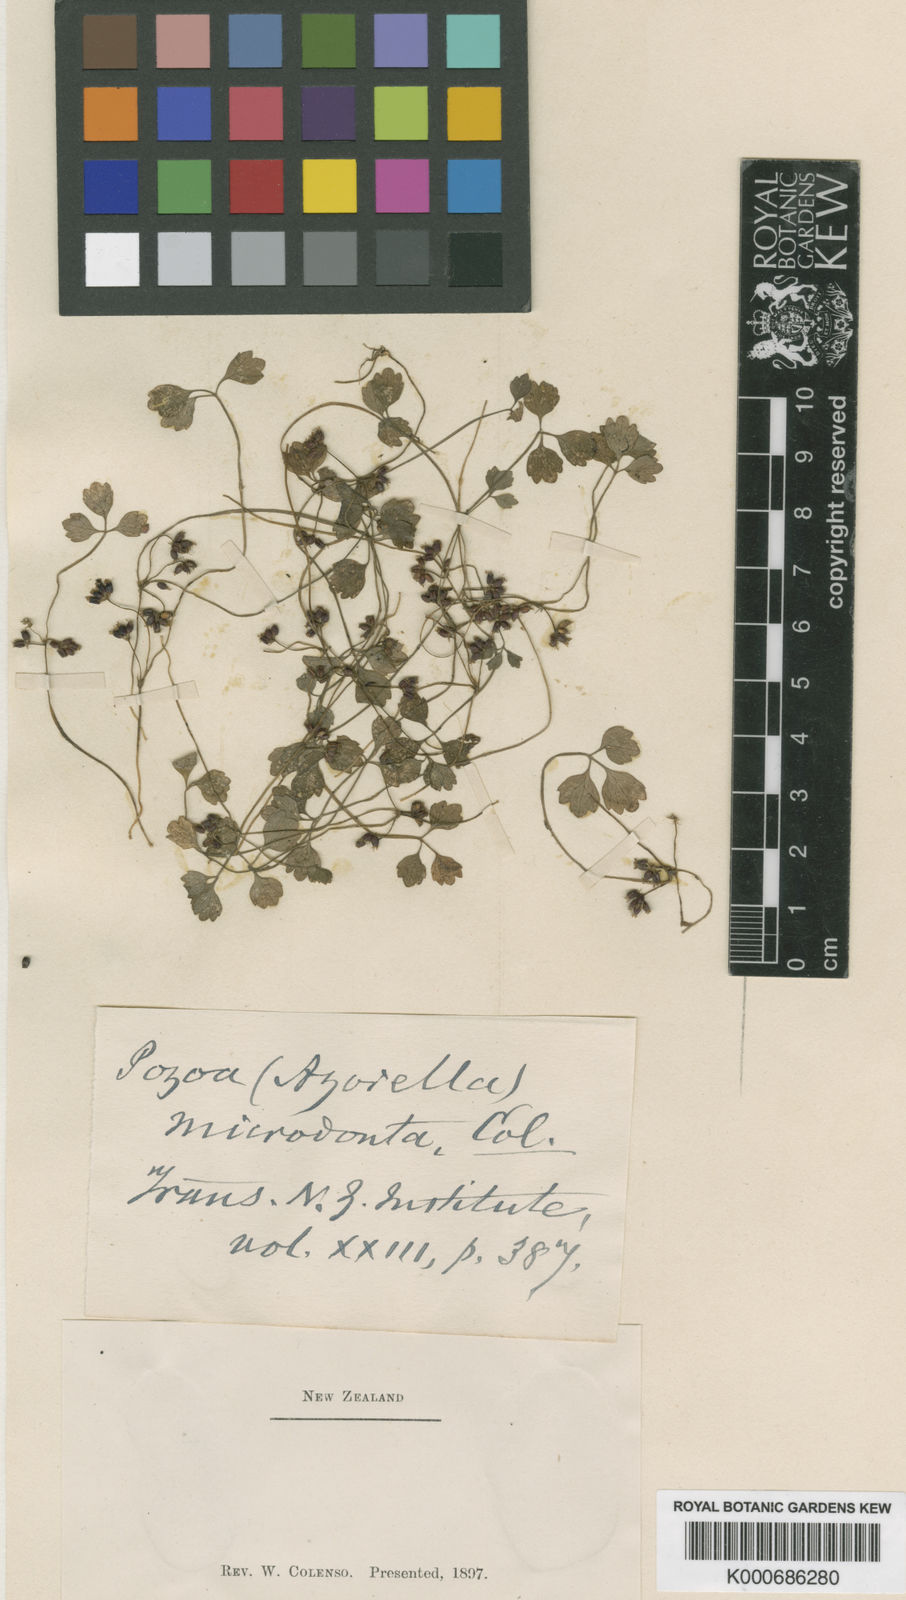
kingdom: Plantae
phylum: Tracheophyta
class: Magnoliopsida
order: Apiales
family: Apiaceae
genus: Azorella
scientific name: Azorella hookeri
